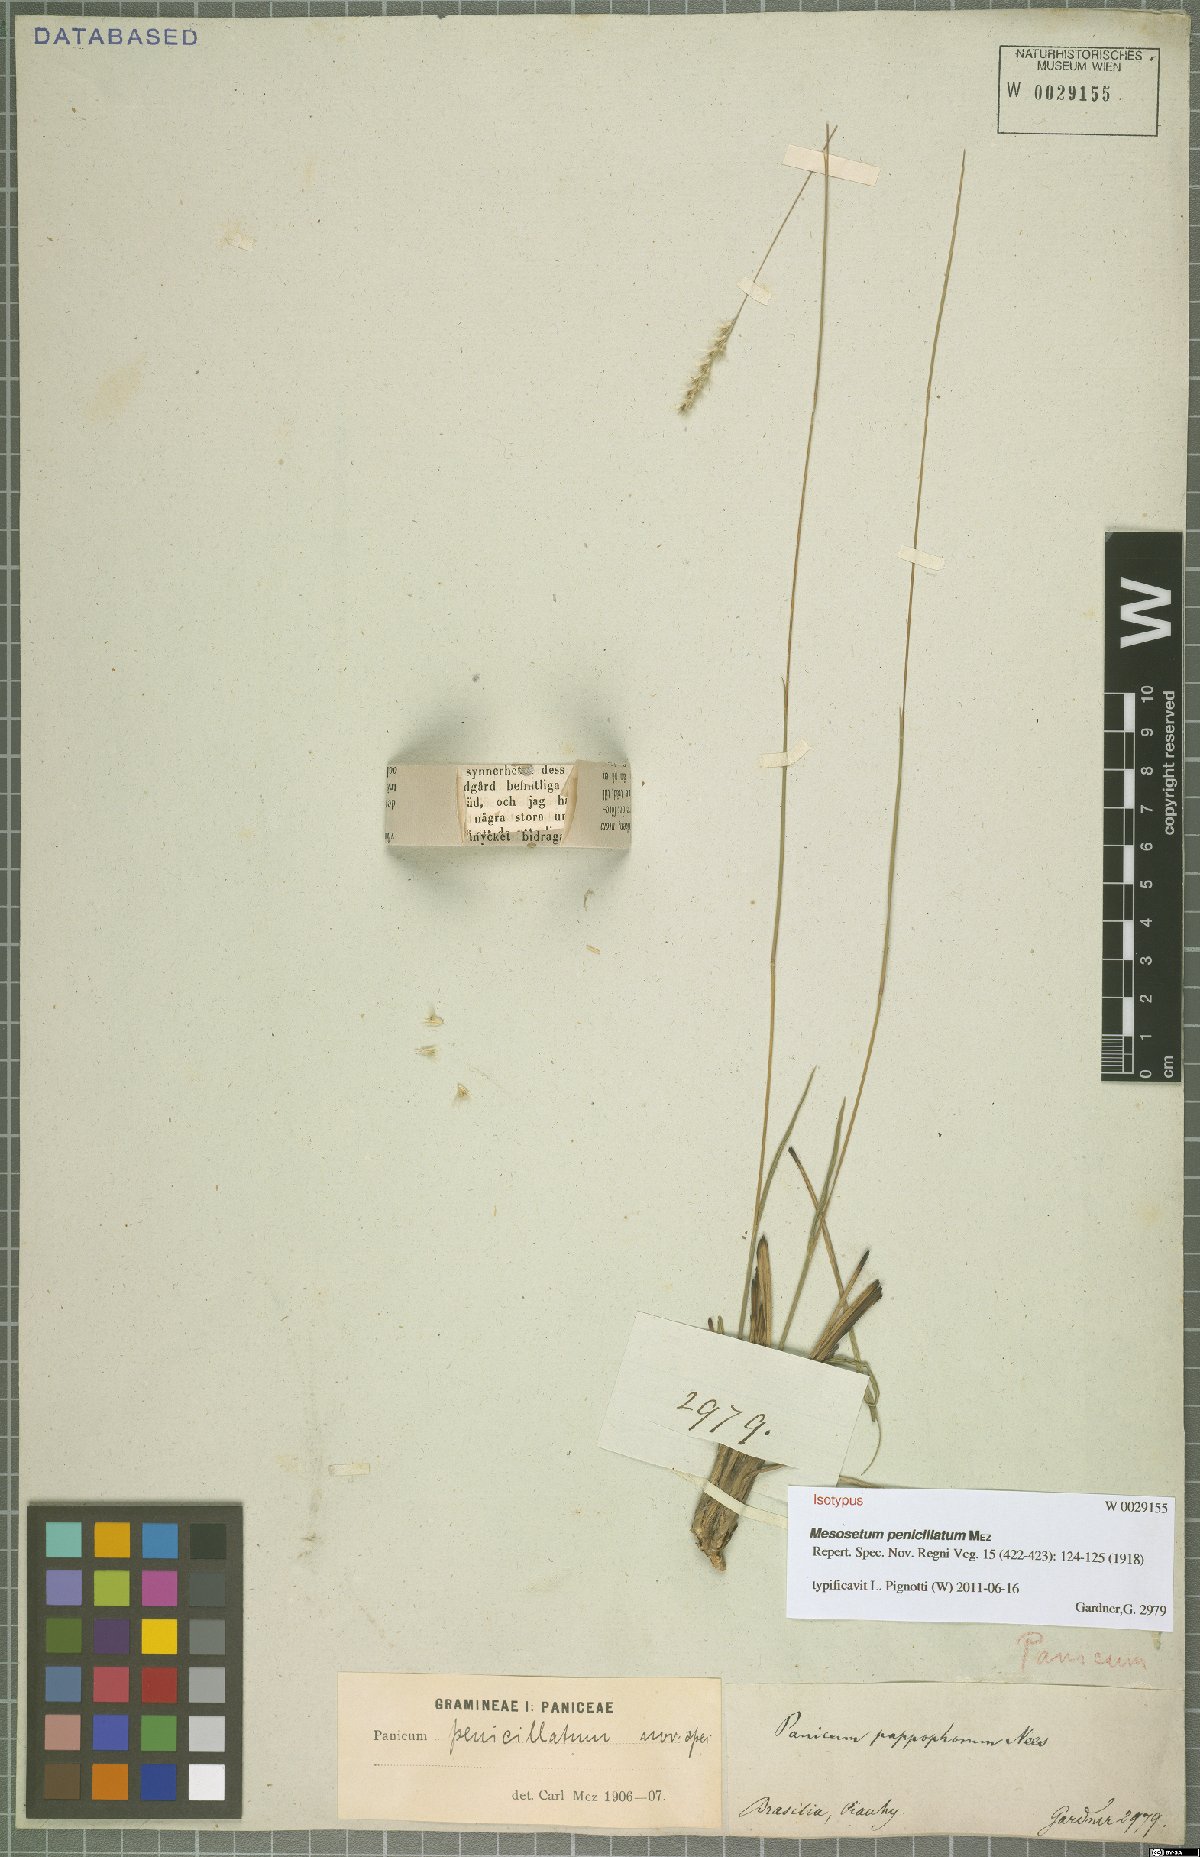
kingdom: Plantae
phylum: Tracheophyta
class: Liliopsida
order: Poales
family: Poaceae
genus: Mesosetum
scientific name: Mesosetum penicillatum
